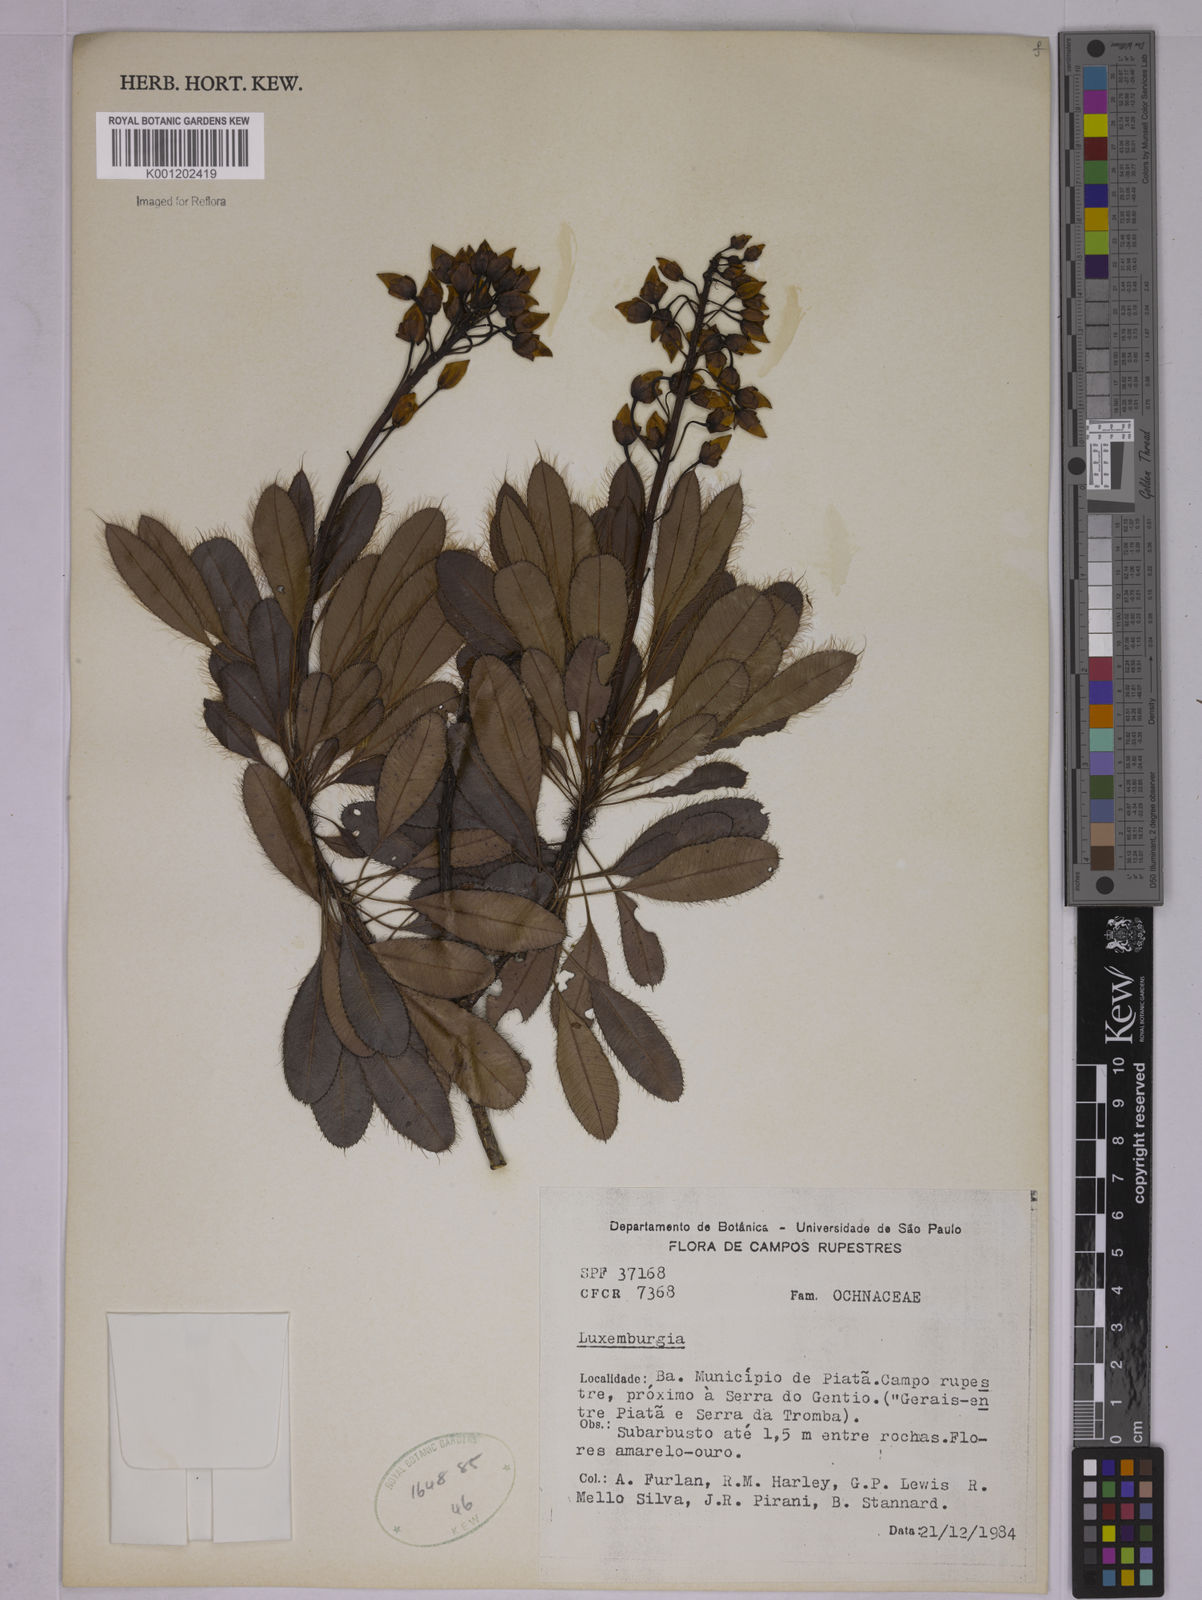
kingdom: Plantae
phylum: Tracheophyta
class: Magnoliopsida
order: Malpighiales
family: Ochnaceae
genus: Luxemburgia
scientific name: Luxemburgia
